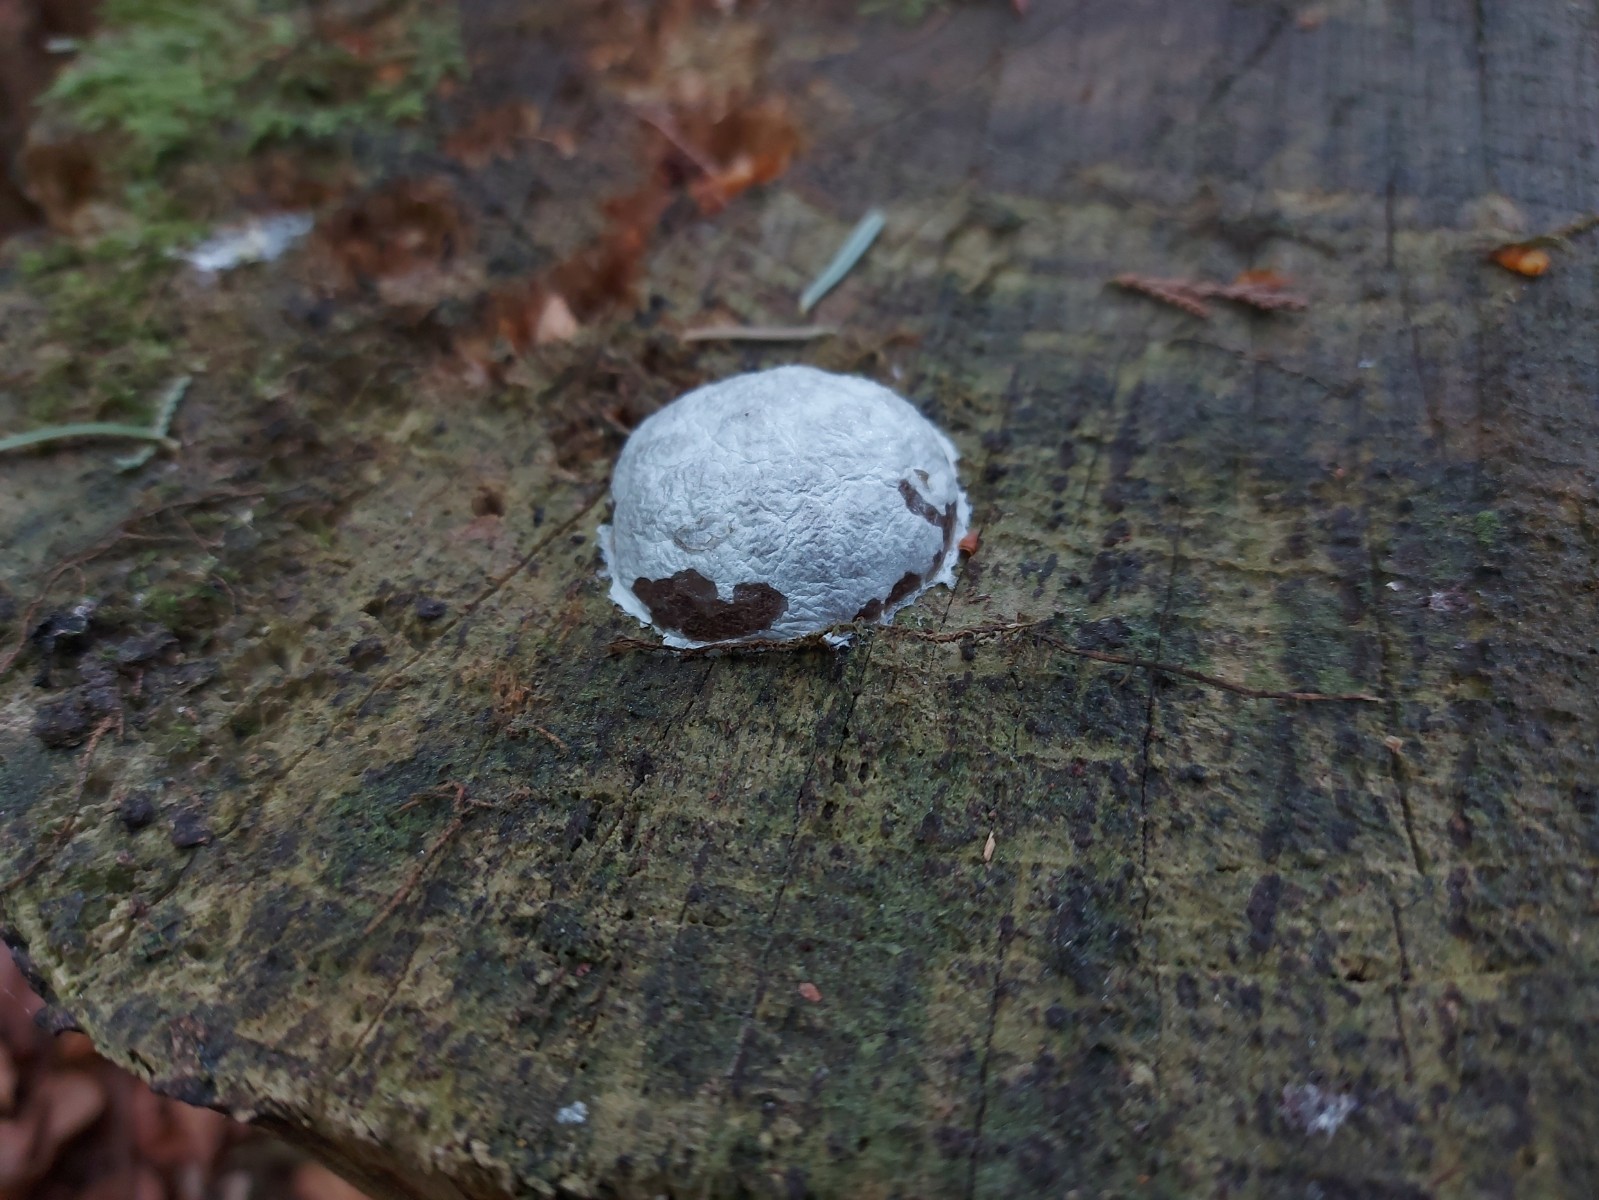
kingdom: Protozoa
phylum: Mycetozoa
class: Myxomycetes
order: Cribrariales
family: Tubiferaceae
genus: Reticularia
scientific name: Reticularia lycoperdon
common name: skinnende støvpude
